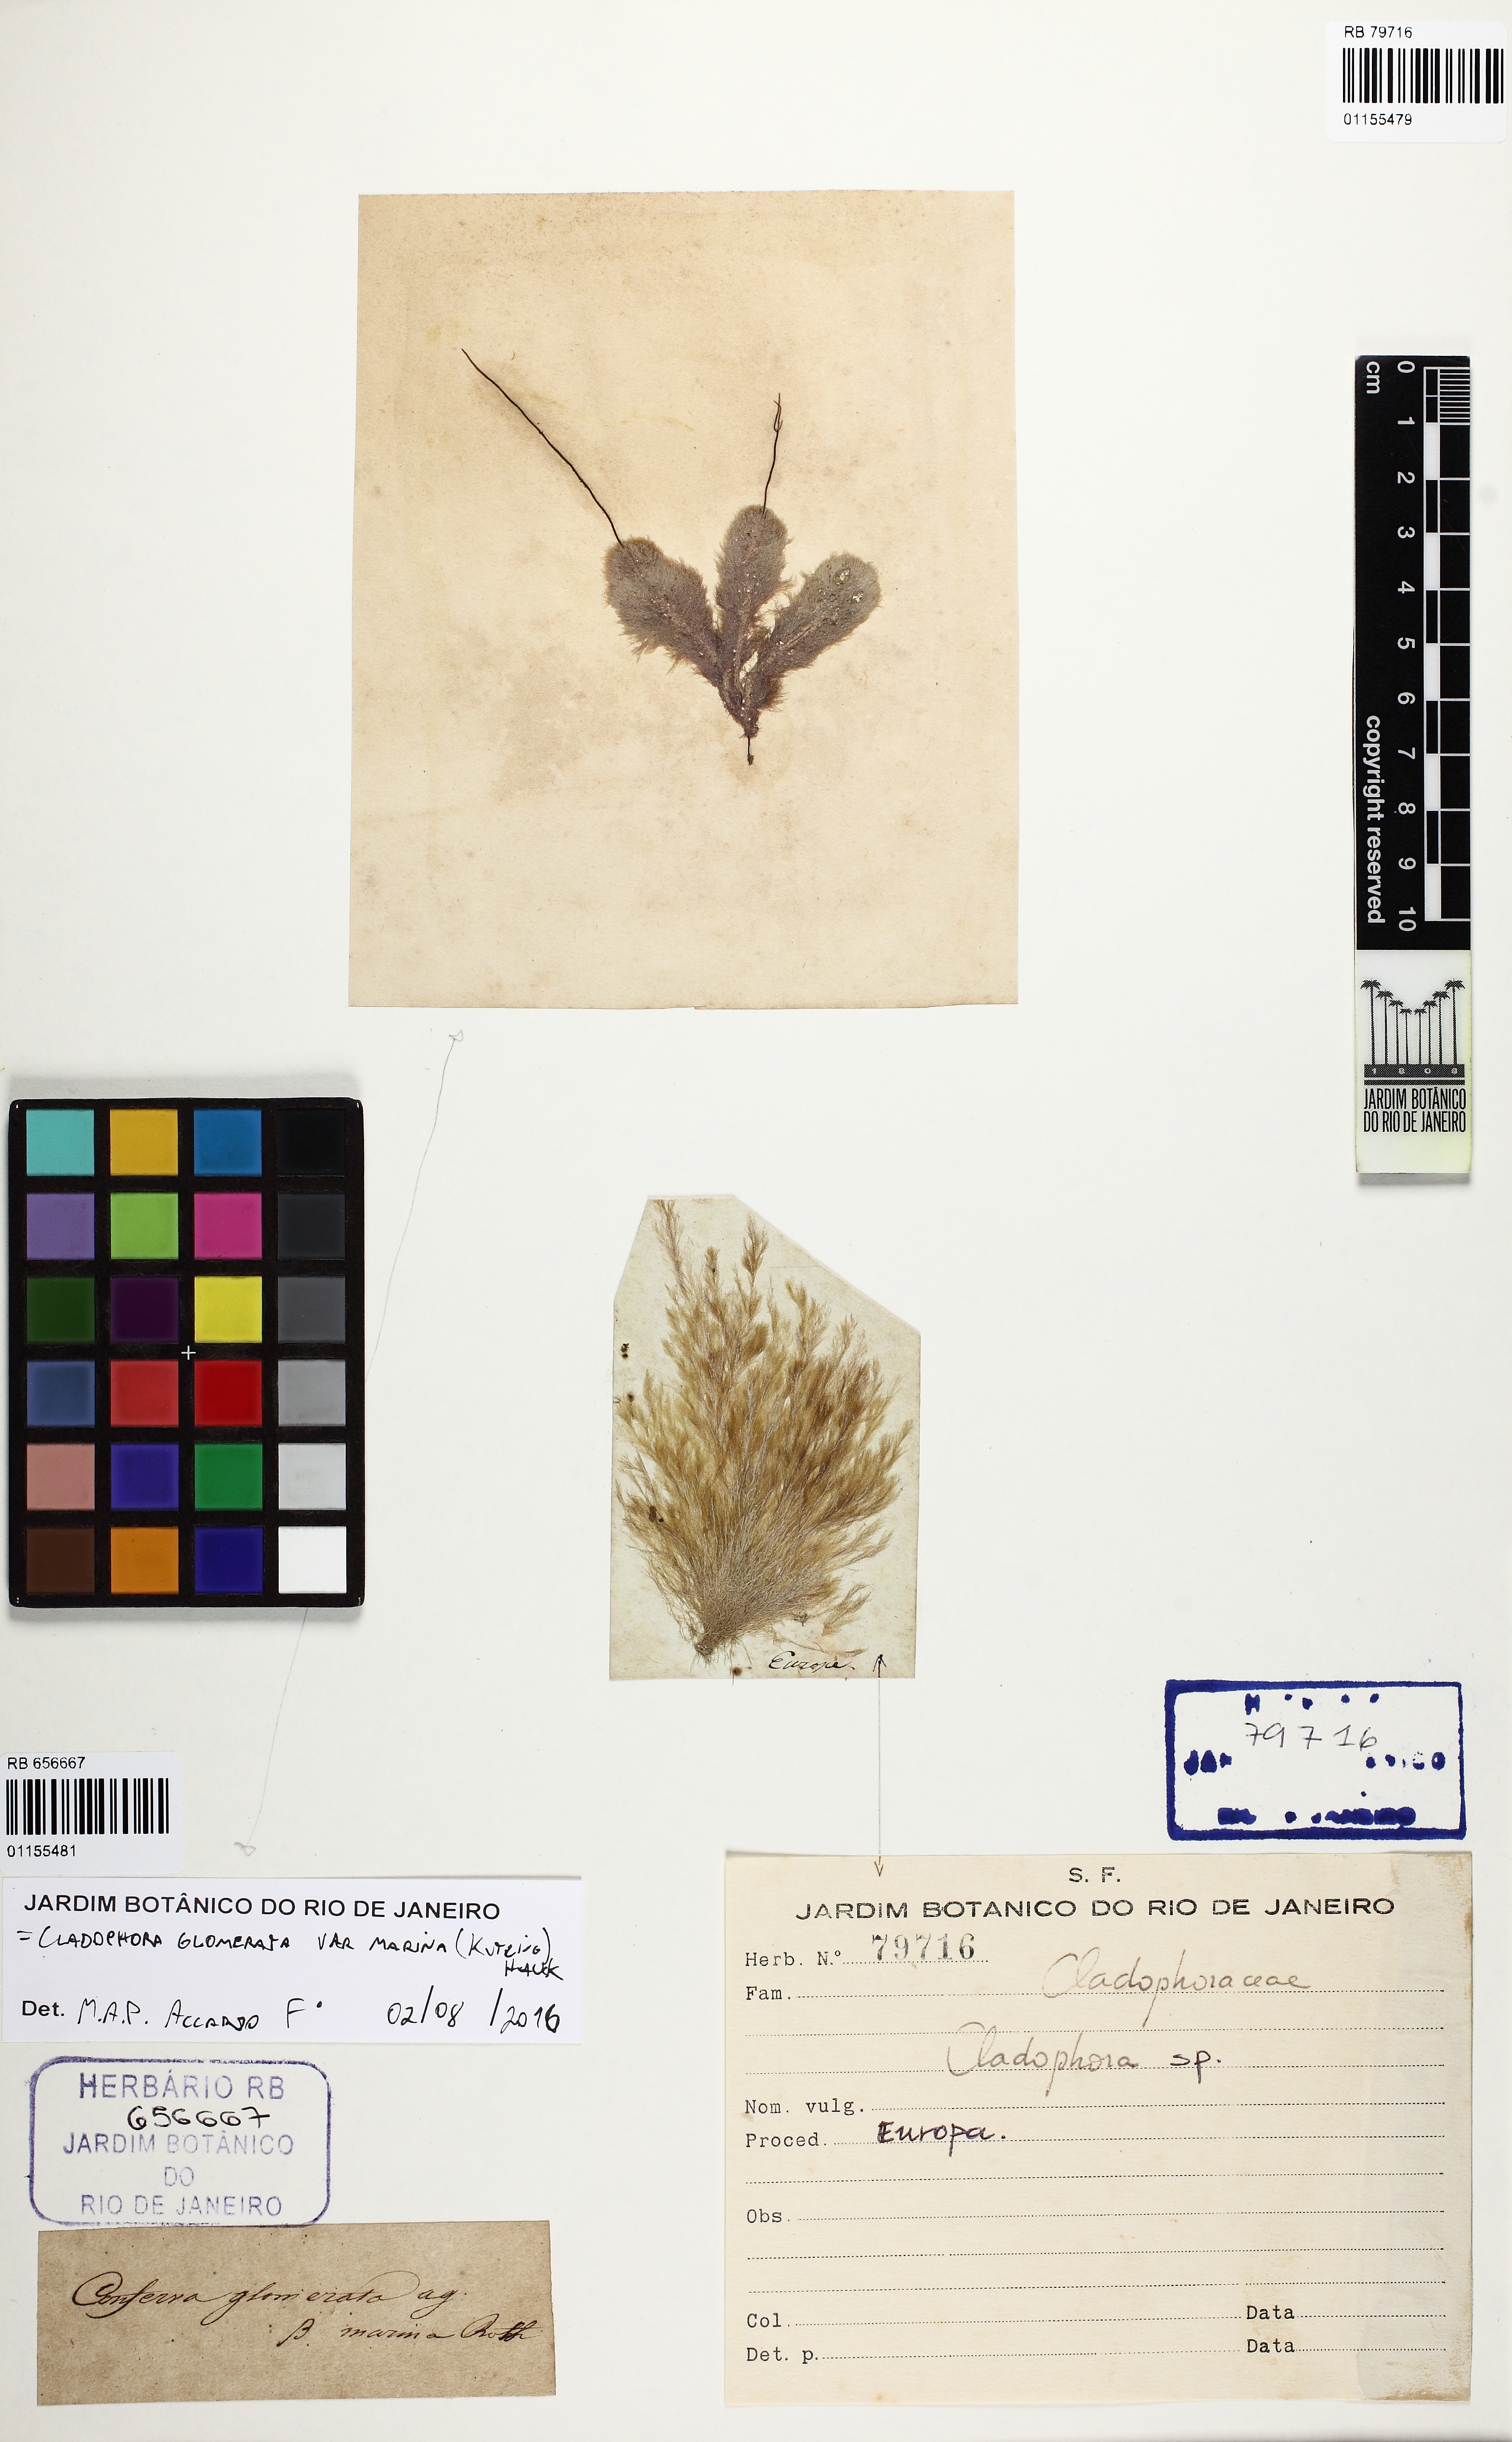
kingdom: Plantae
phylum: Chlorophyta
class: Ulvophyceae
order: Cladophorales
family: Cladophoraceae
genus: Cladophora
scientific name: Cladophora
